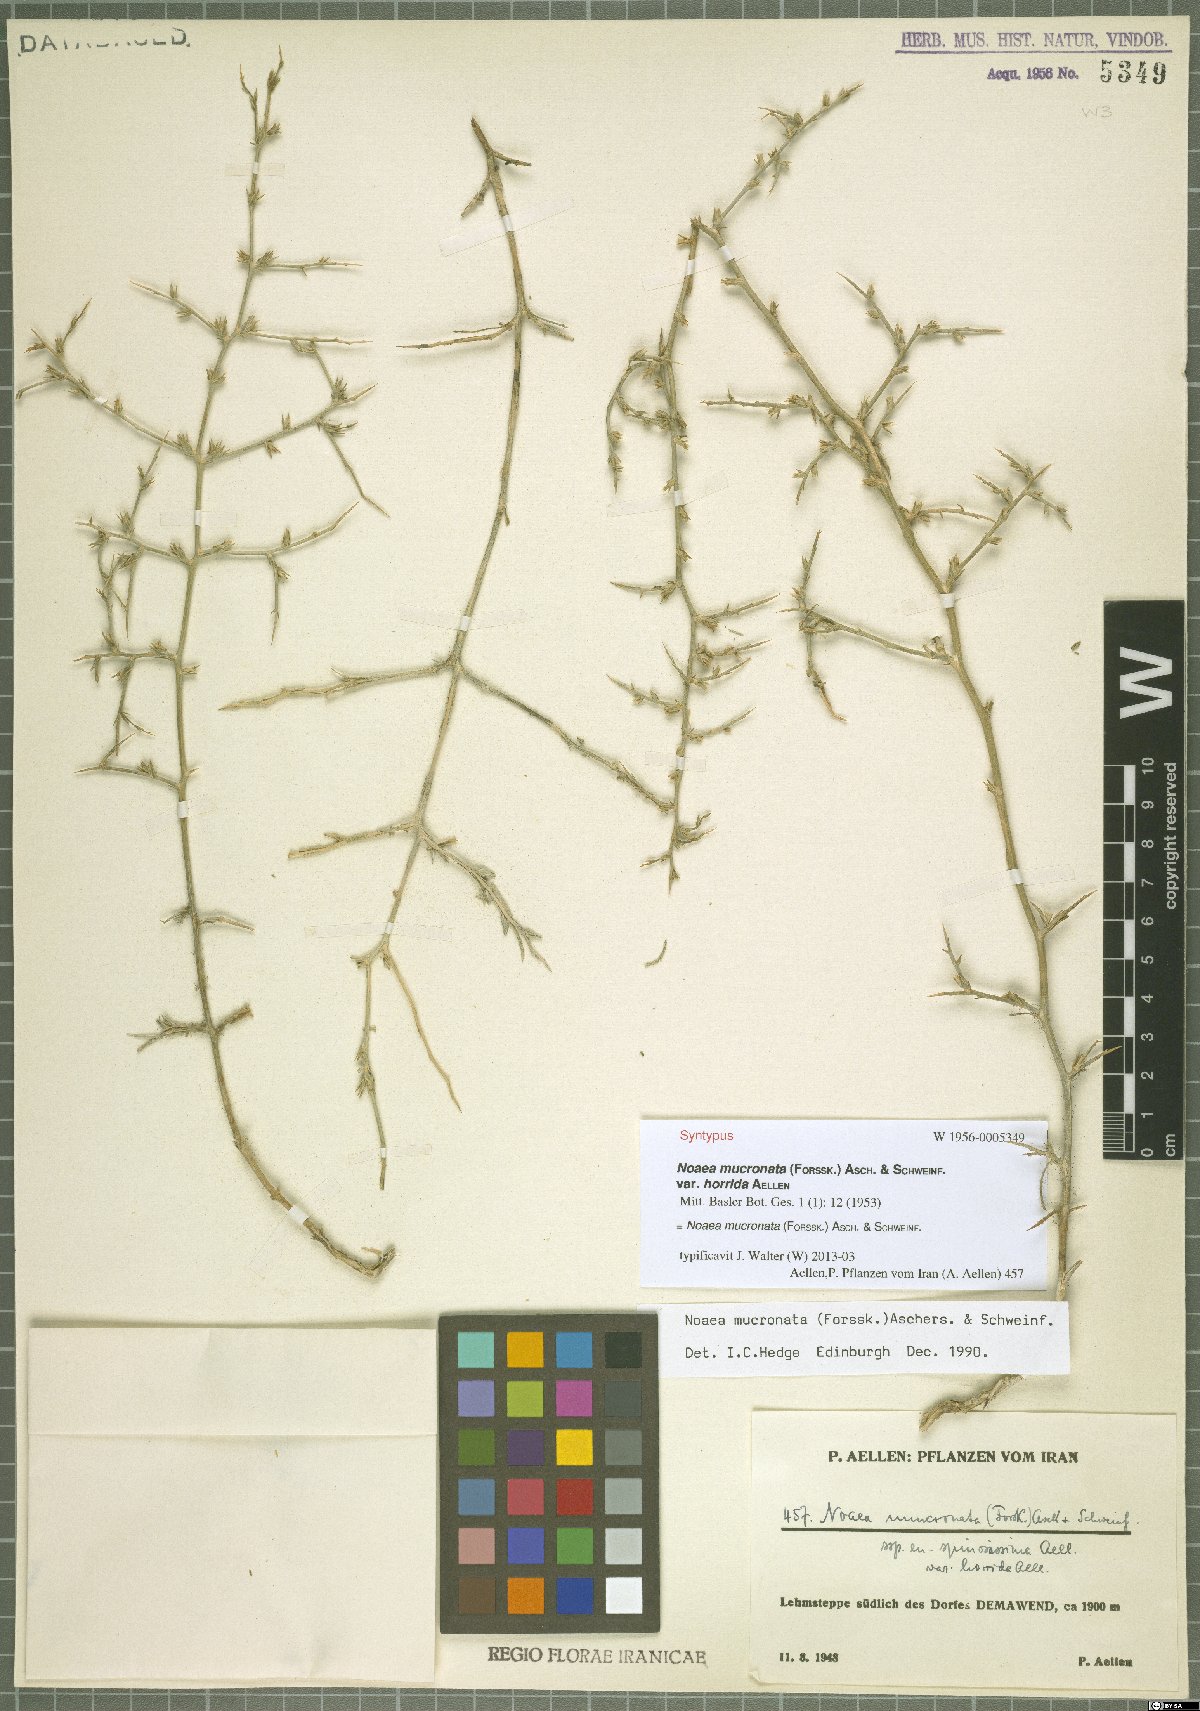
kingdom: Plantae
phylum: Tracheophyta
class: Magnoliopsida
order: Caryophyllales
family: Amaranthaceae
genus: Noaea
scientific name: Noaea mucronata
